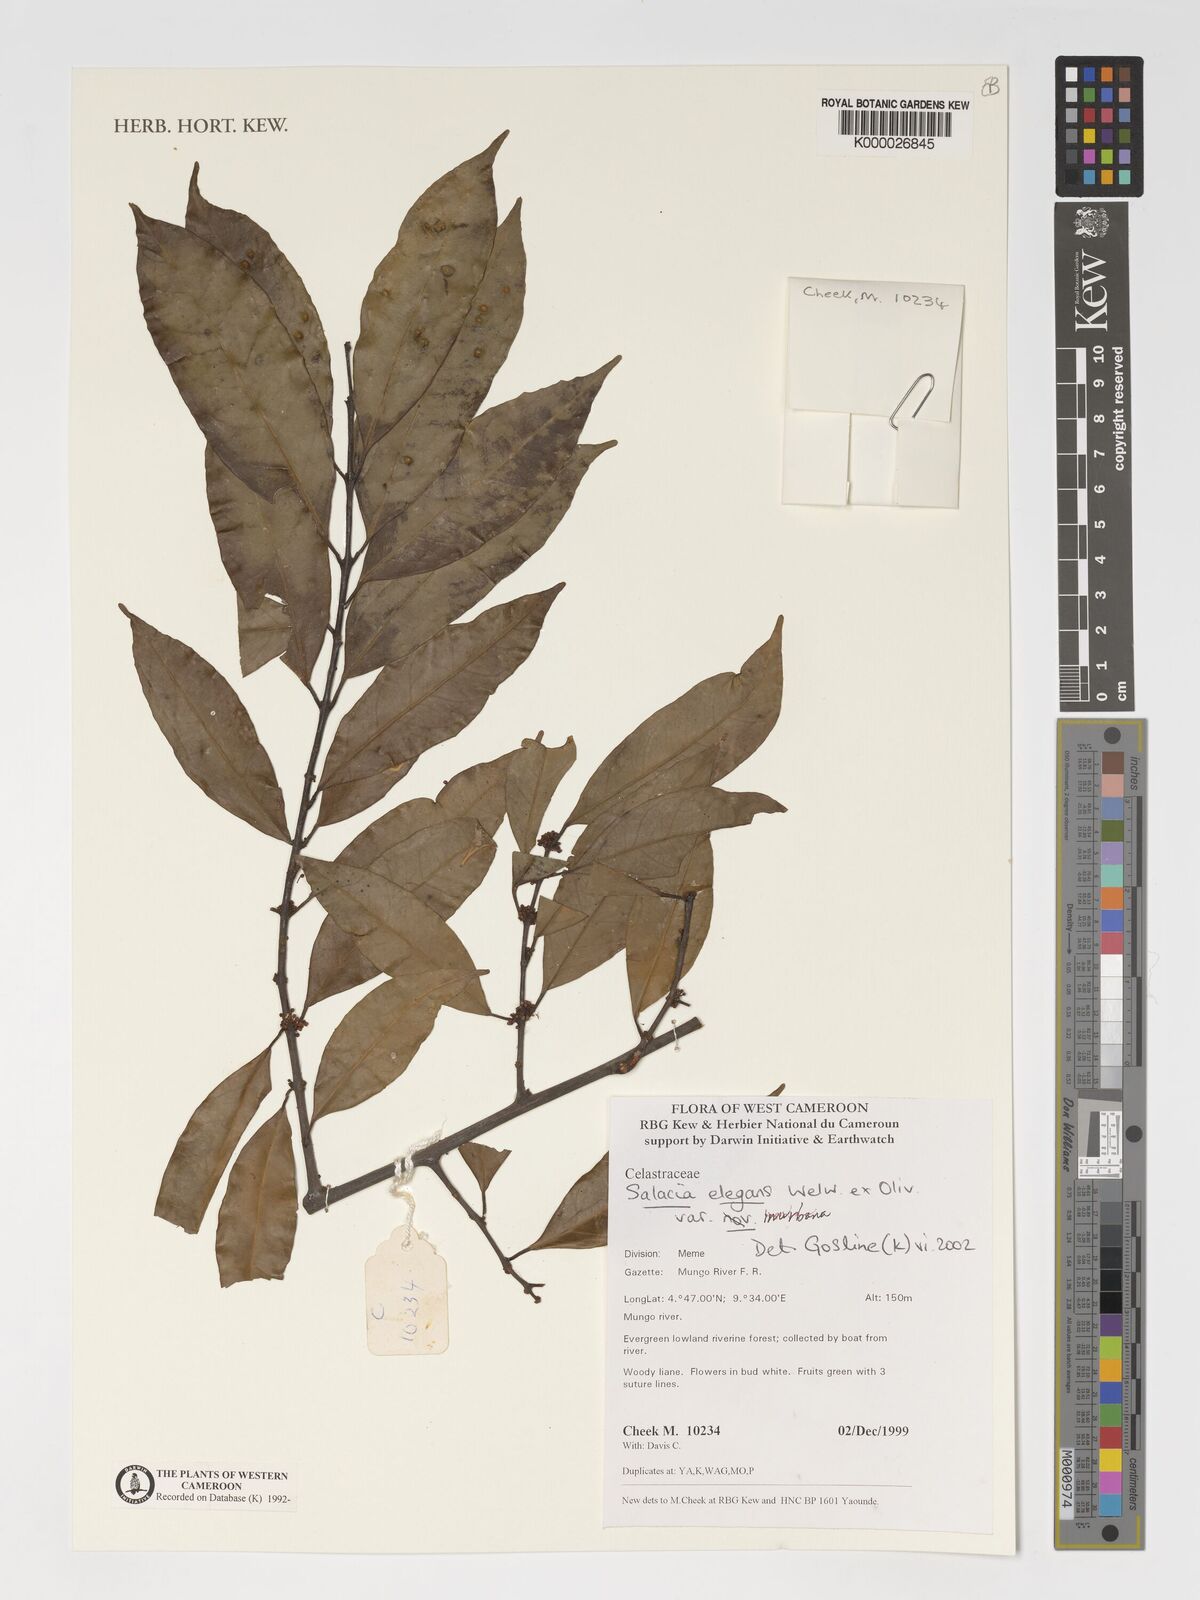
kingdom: Plantae
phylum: Tracheophyta
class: Magnoliopsida
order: Celastrales
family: Celastraceae
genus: Salacia
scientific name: Salacia elegans
